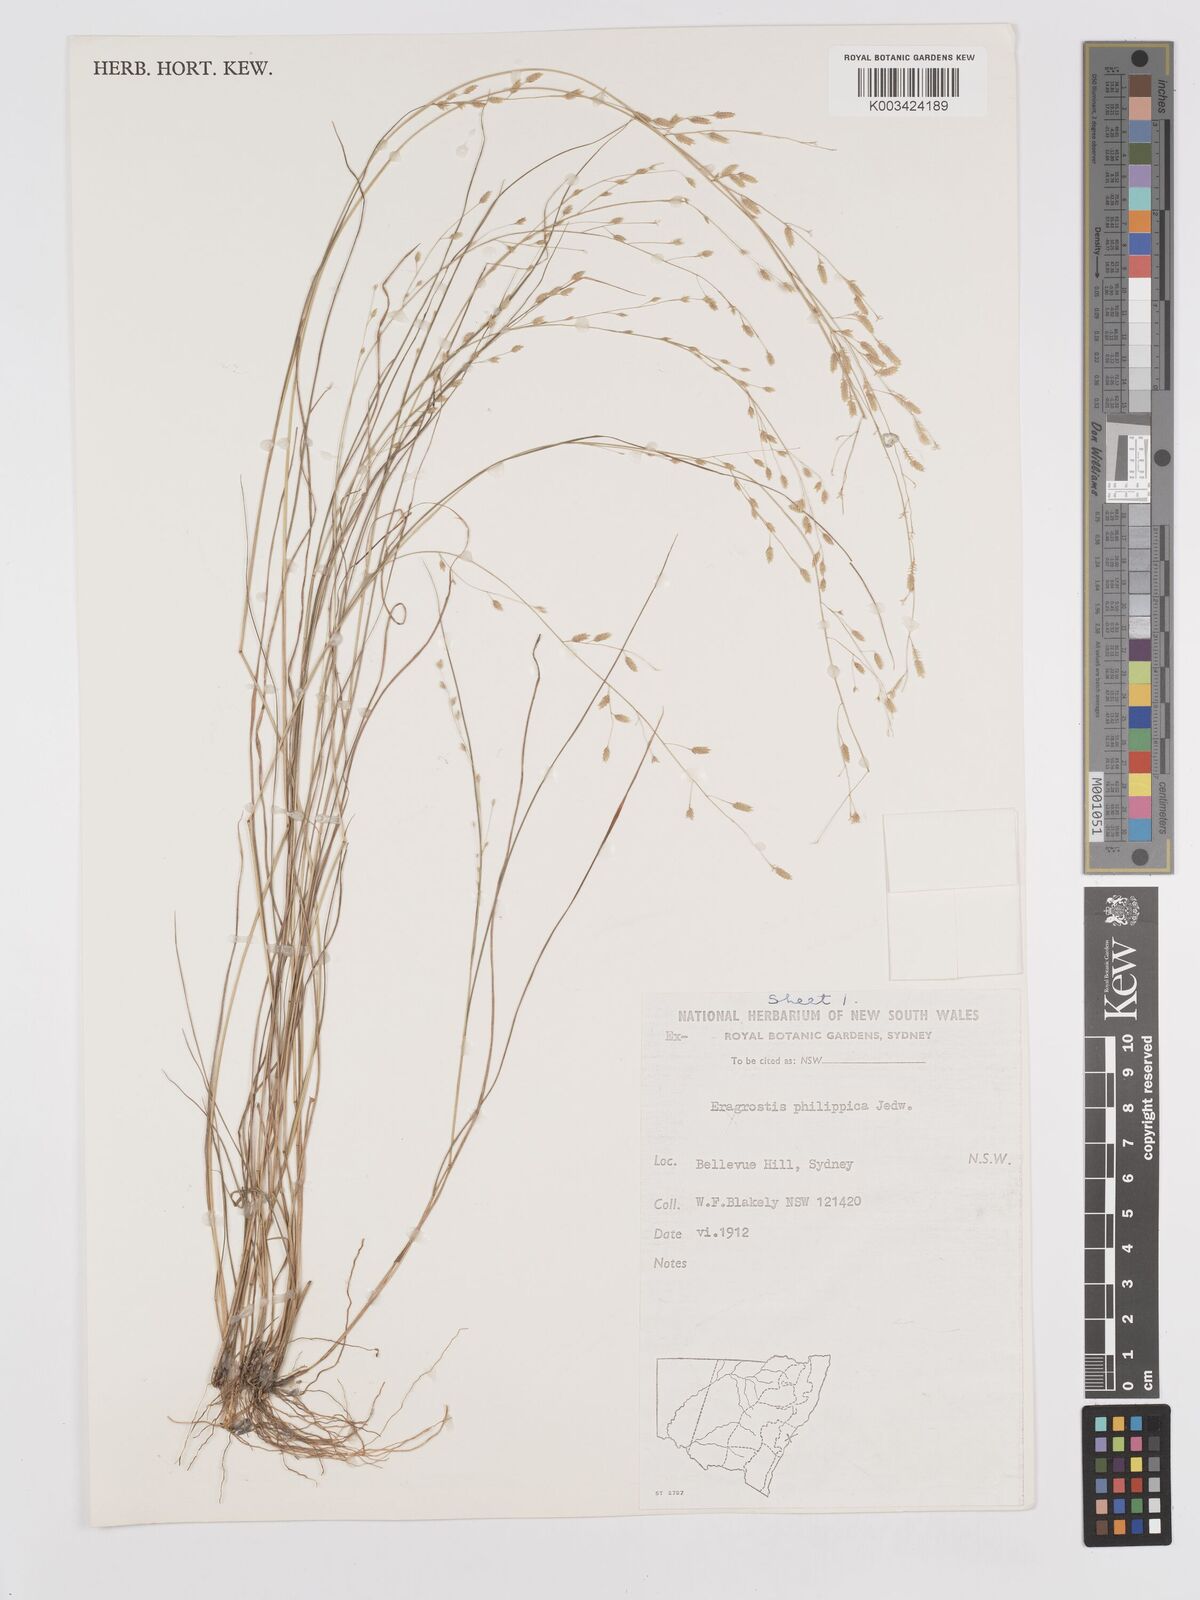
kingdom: Plantae
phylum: Tracheophyta
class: Liliopsida
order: Poales
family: Poaceae
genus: Eragrostis
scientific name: Eragrostis brownii
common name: Lovegrass
